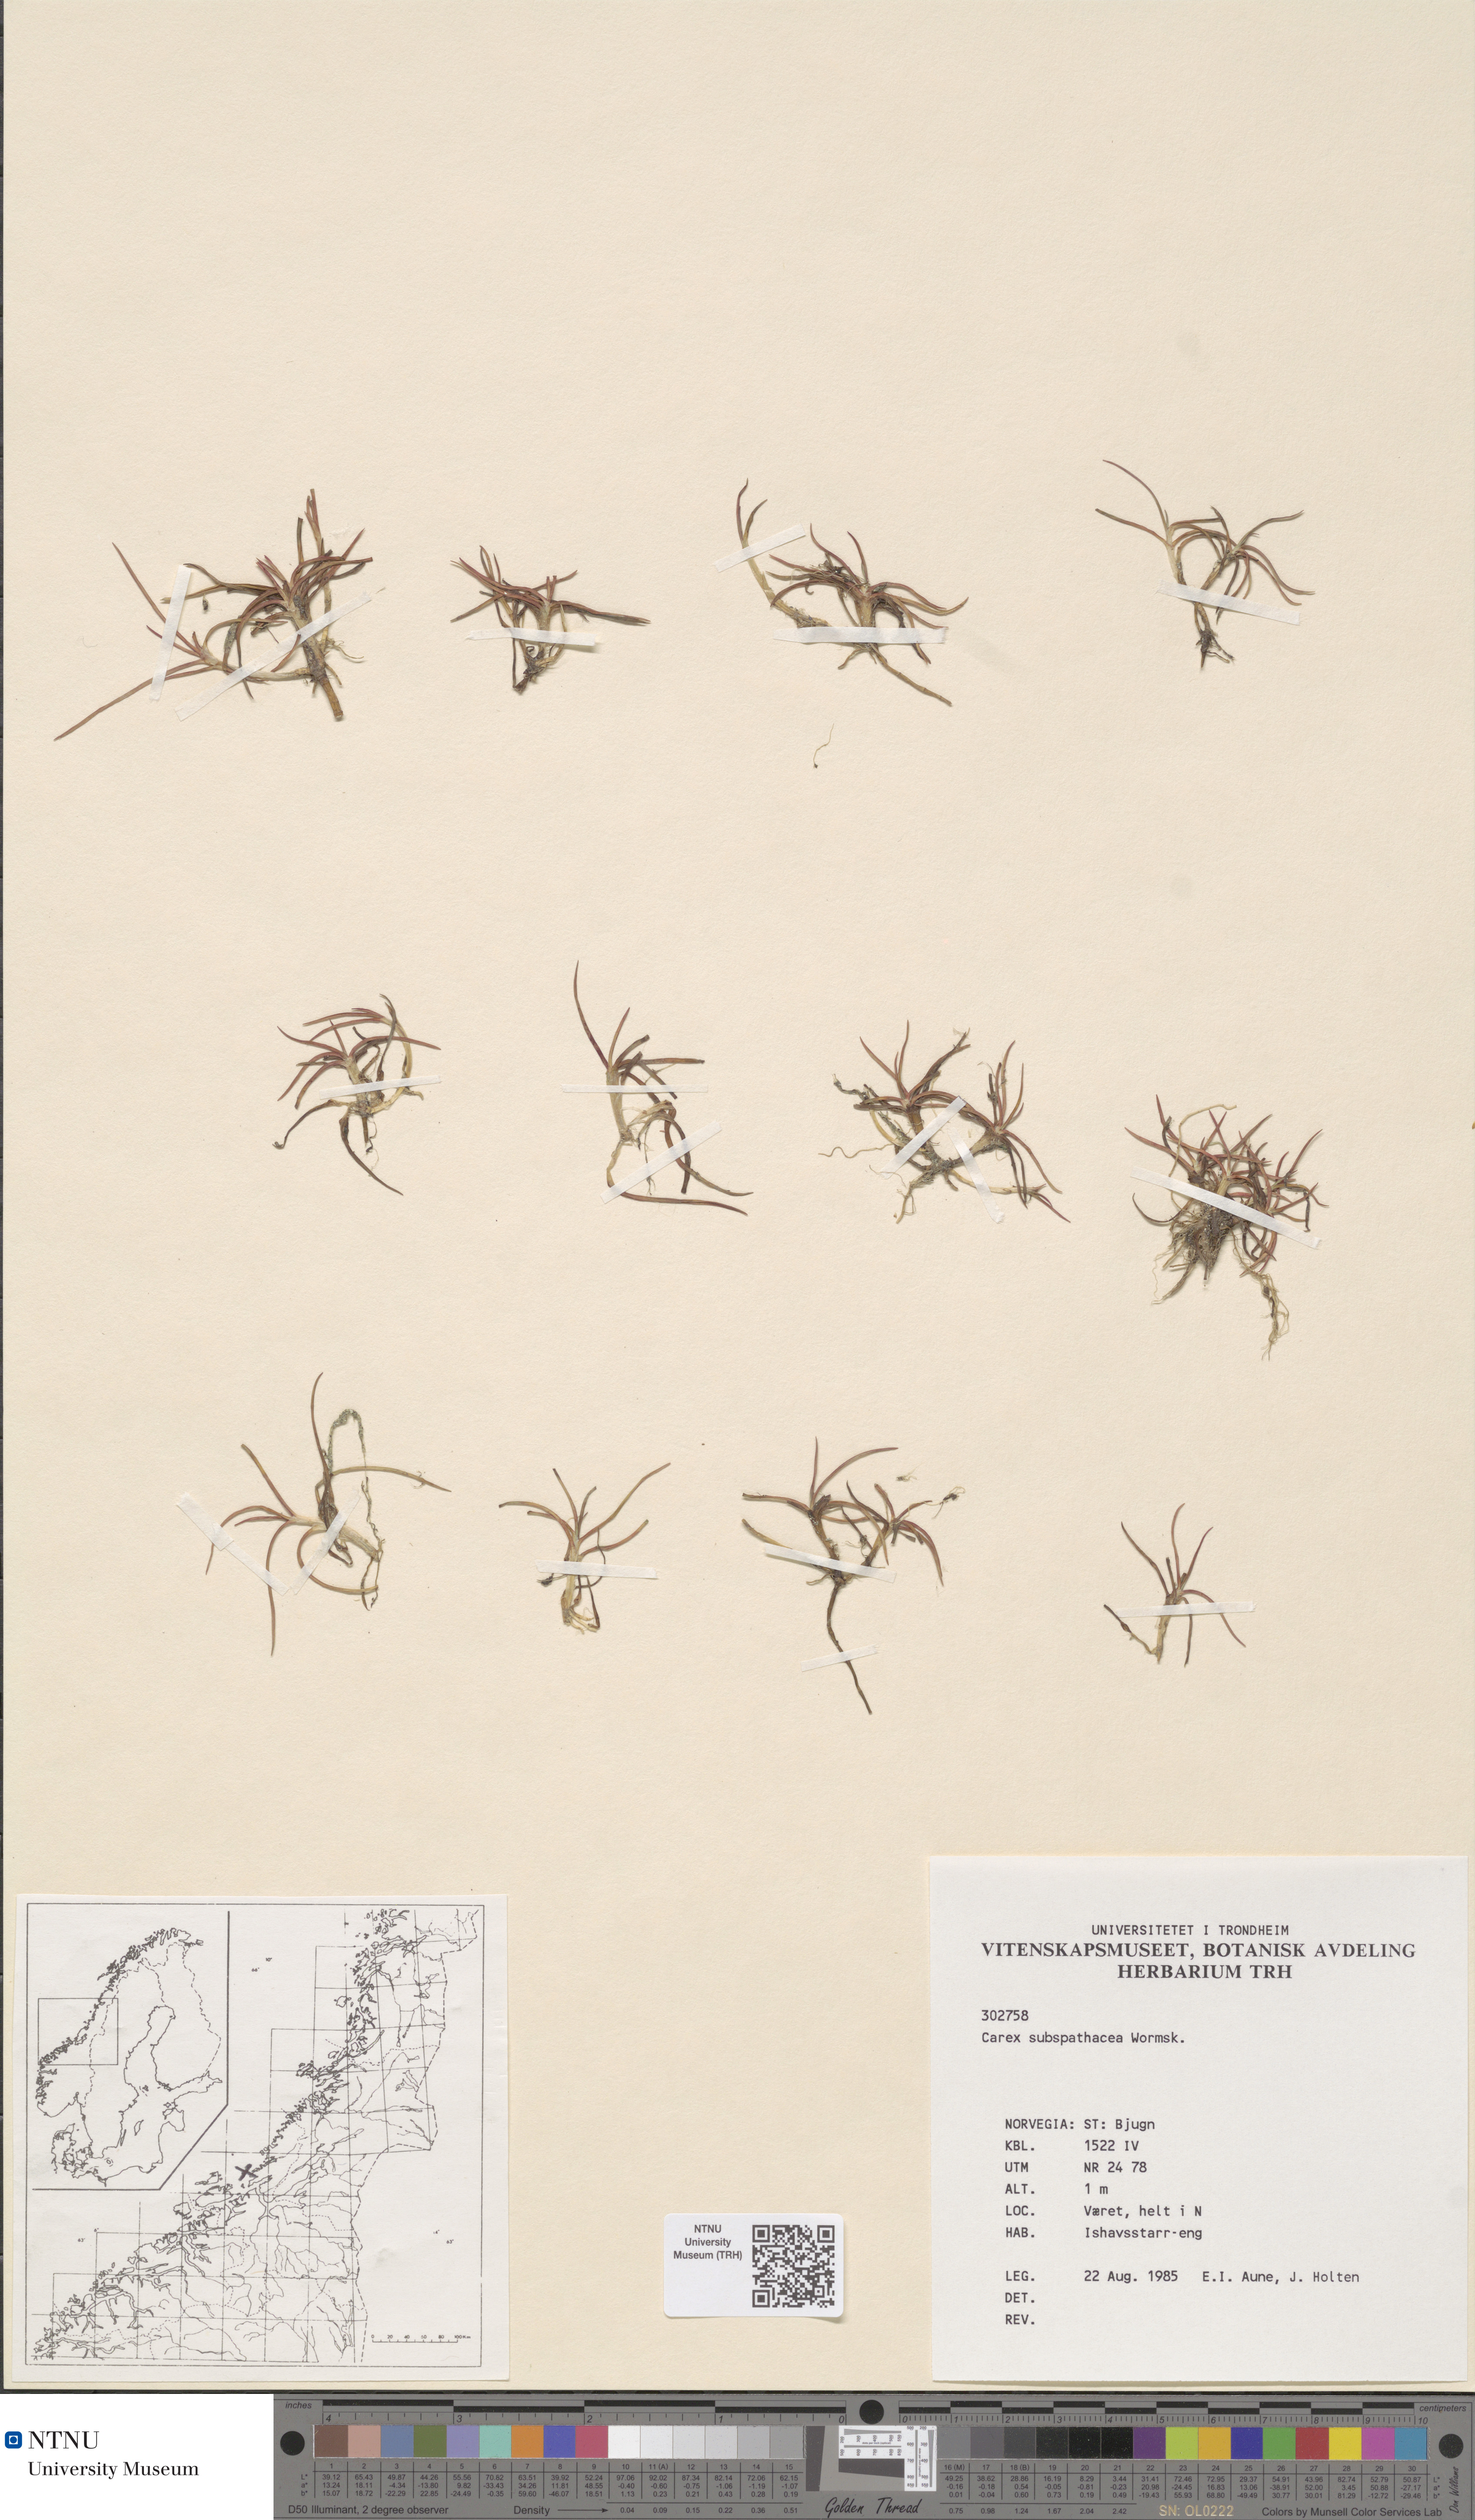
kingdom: Plantae
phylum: Tracheophyta
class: Liliopsida
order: Poales
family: Cyperaceae
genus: Carex
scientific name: Carex subspathacea
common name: Hoppner's sedge
